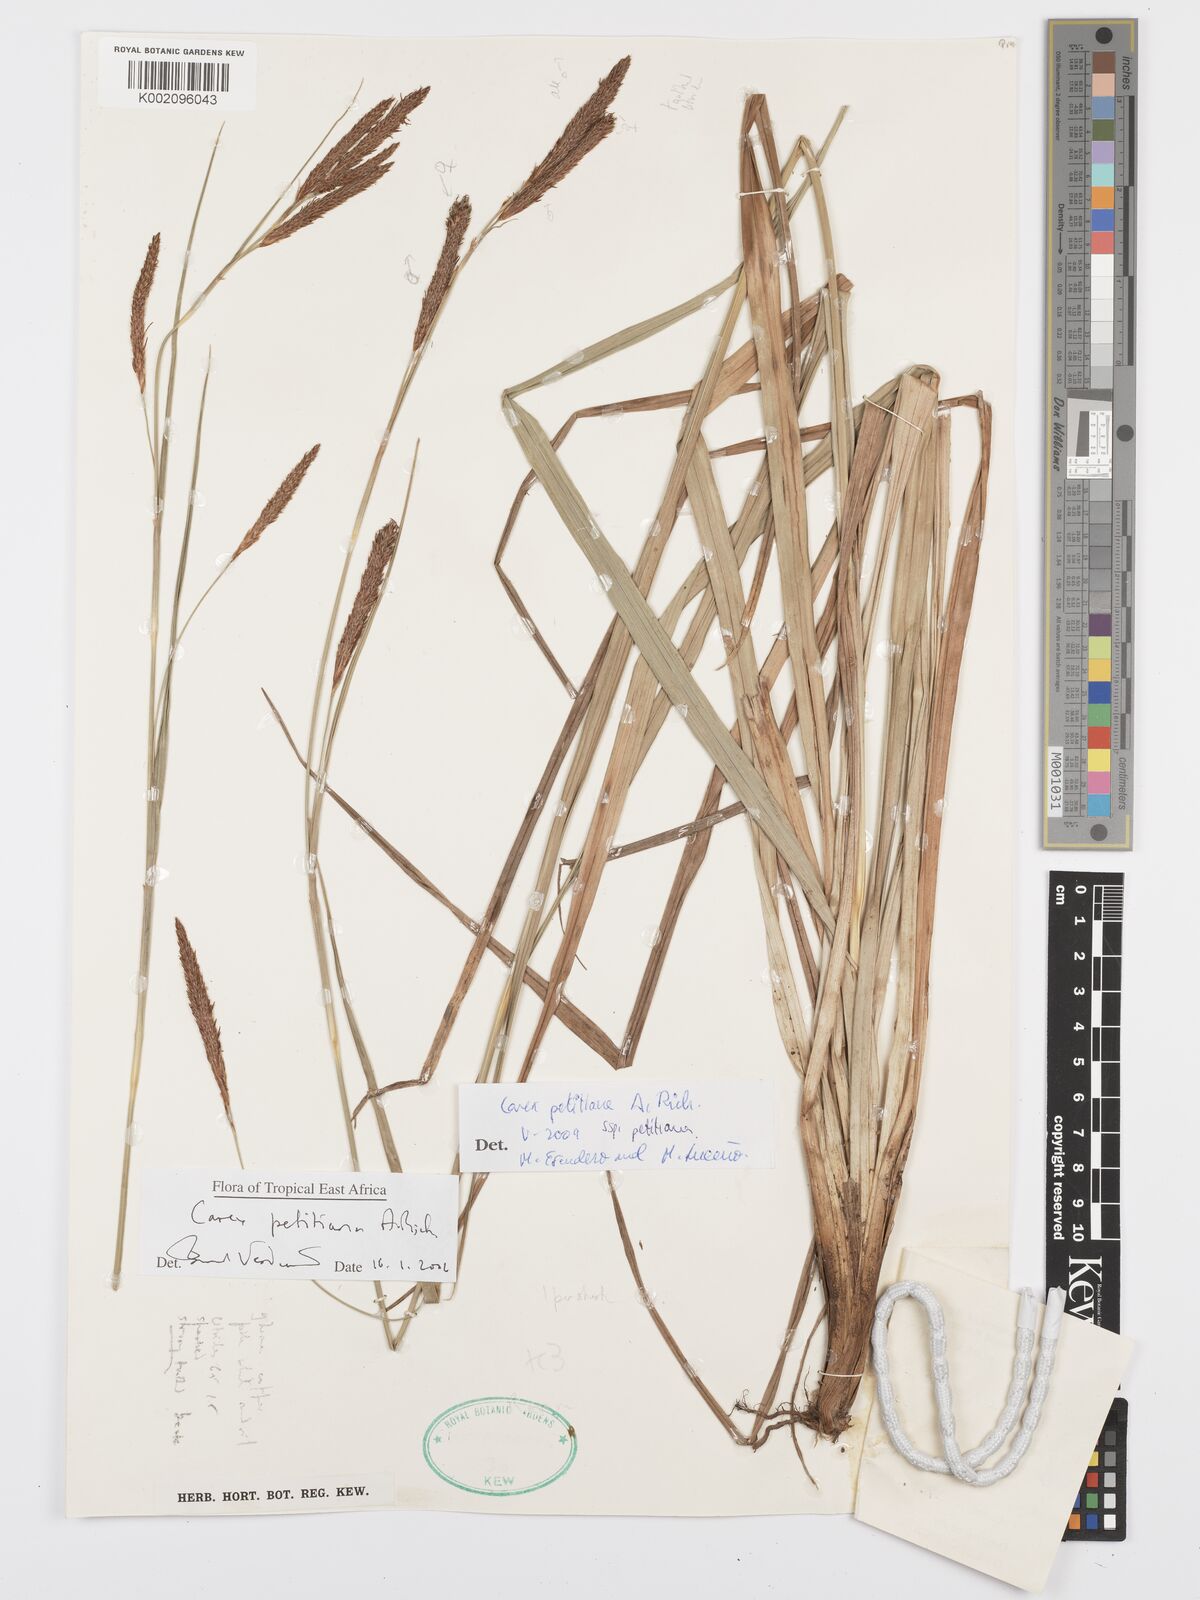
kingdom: Plantae
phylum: Tracheophyta
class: Liliopsida
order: Poales
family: Cyperaceae
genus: Carex
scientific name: Carex petitiana
